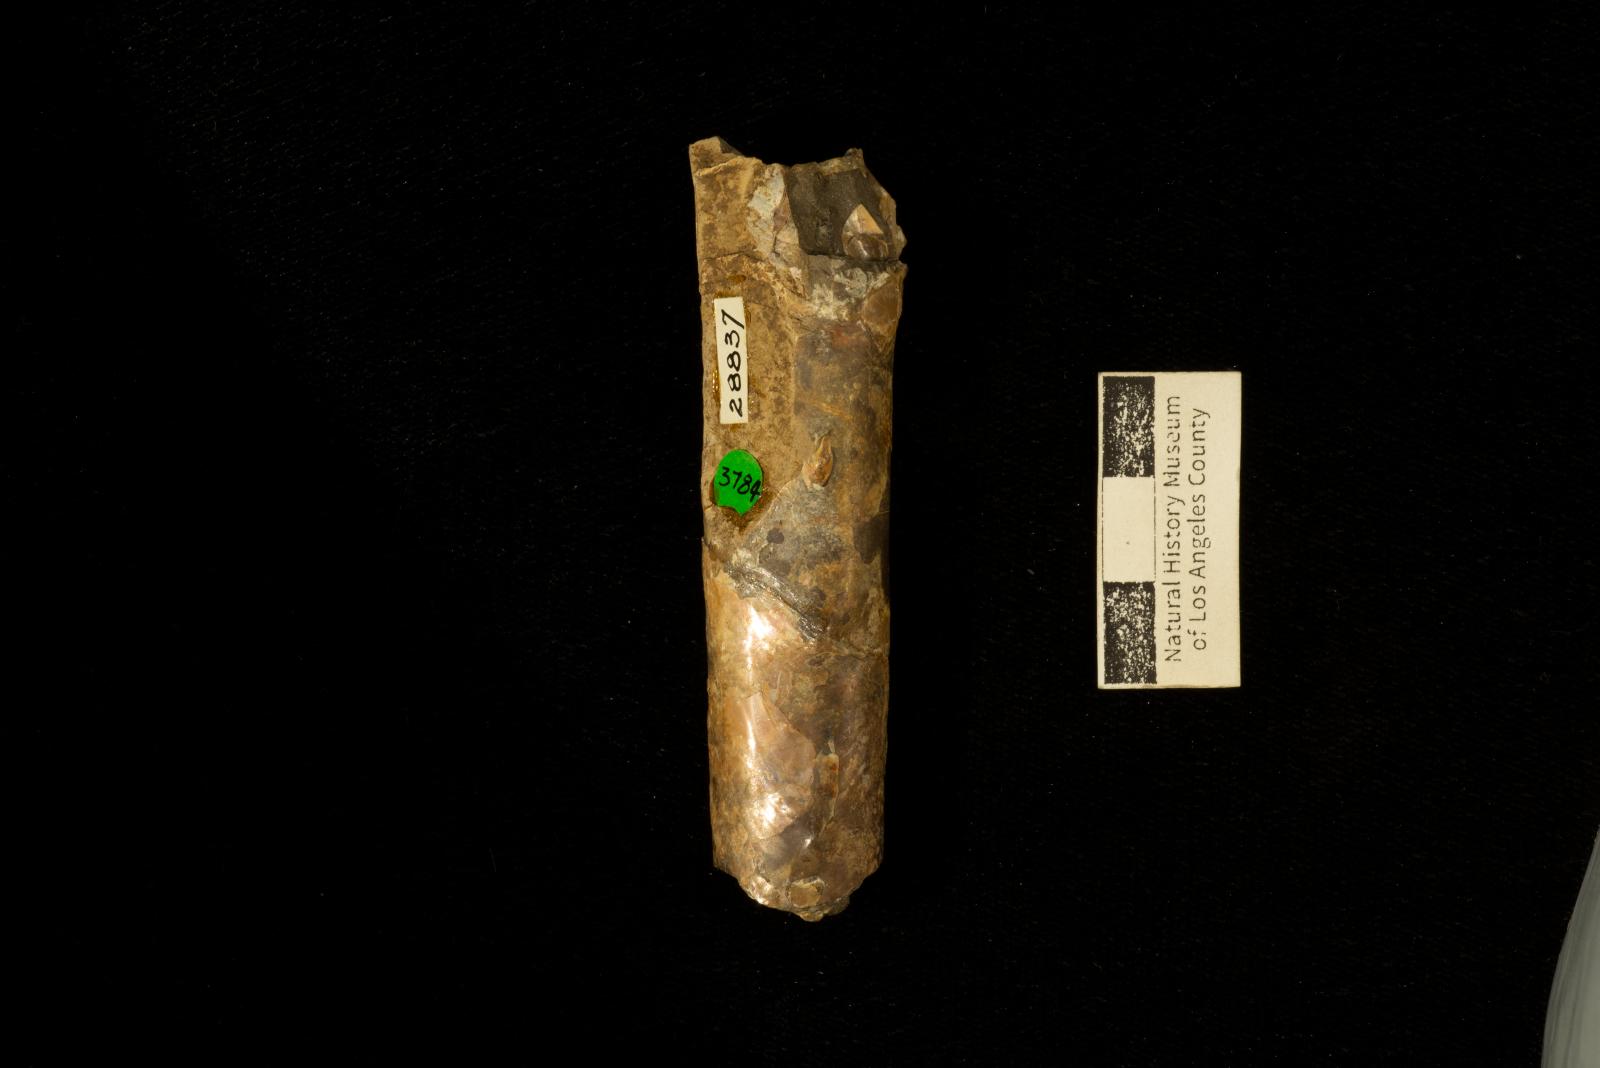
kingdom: Animalia
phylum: Mollusca
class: Cephalopoda
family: Baculitidae
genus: Baculites
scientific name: Baculites capensis
